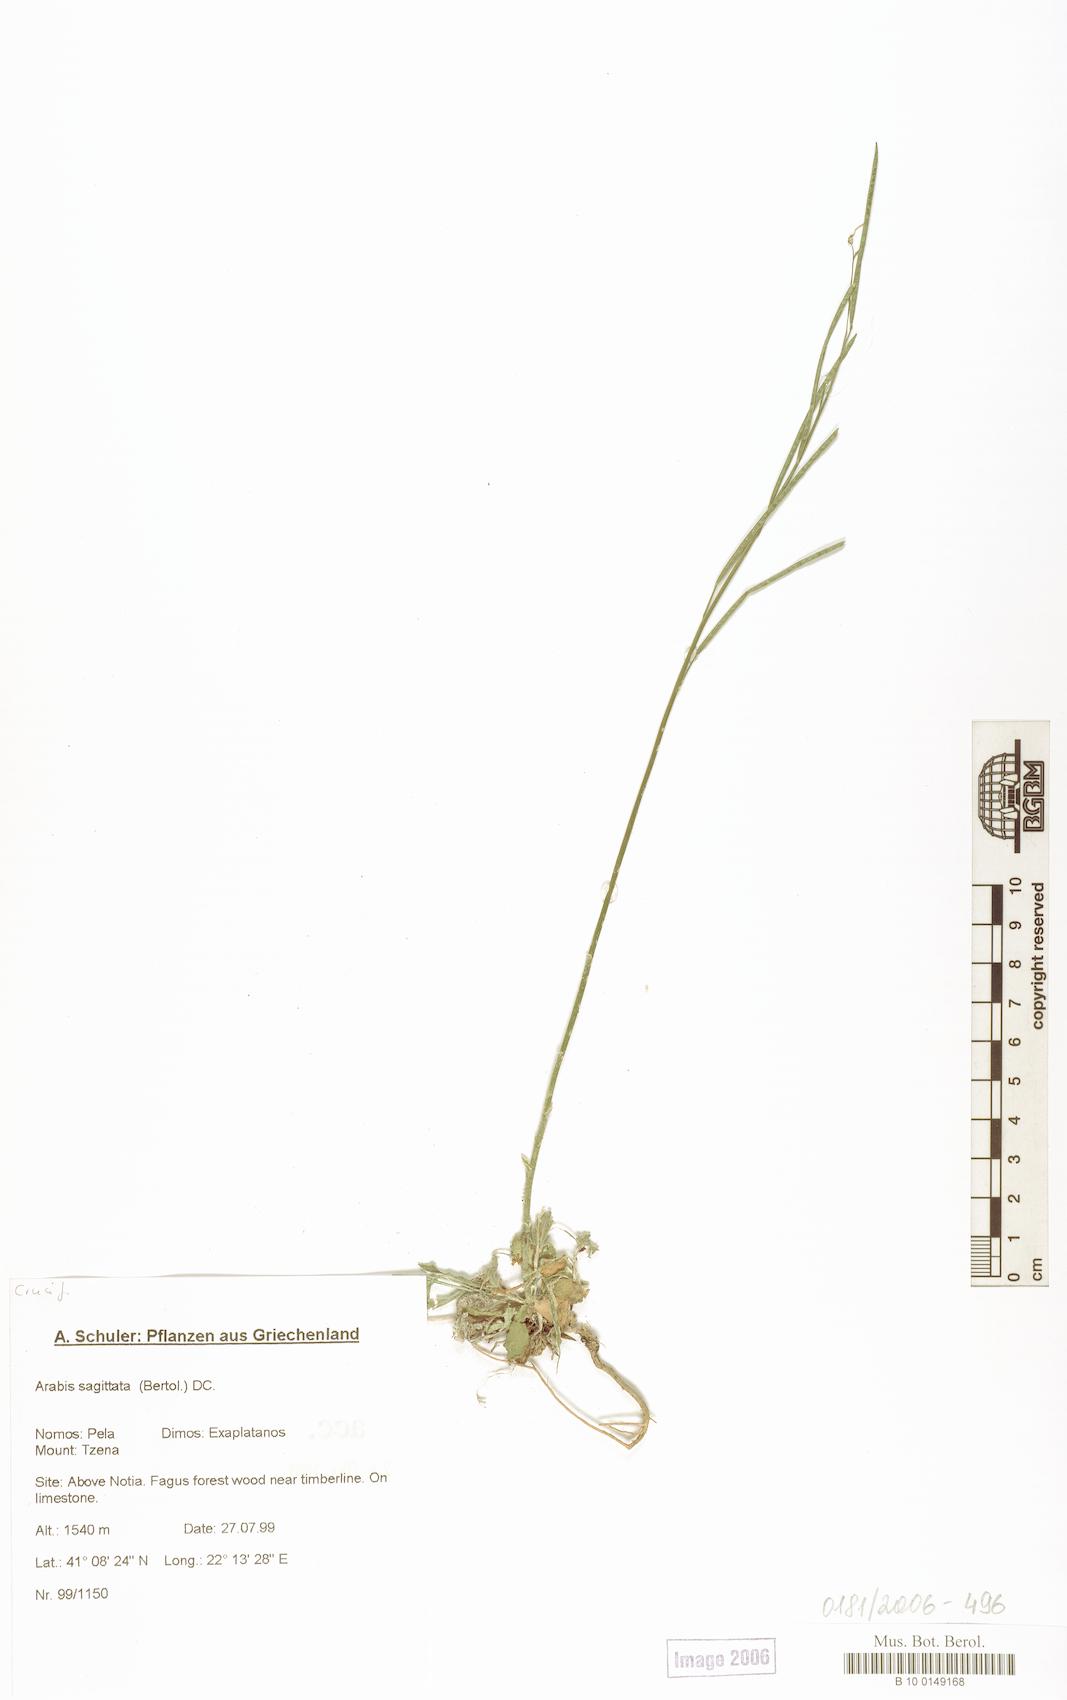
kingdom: Plantae
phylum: Tracheophyta
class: Magnoliopsida
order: Brassicales
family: Brassicaceae
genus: Arabis
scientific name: Arabis sagittata
